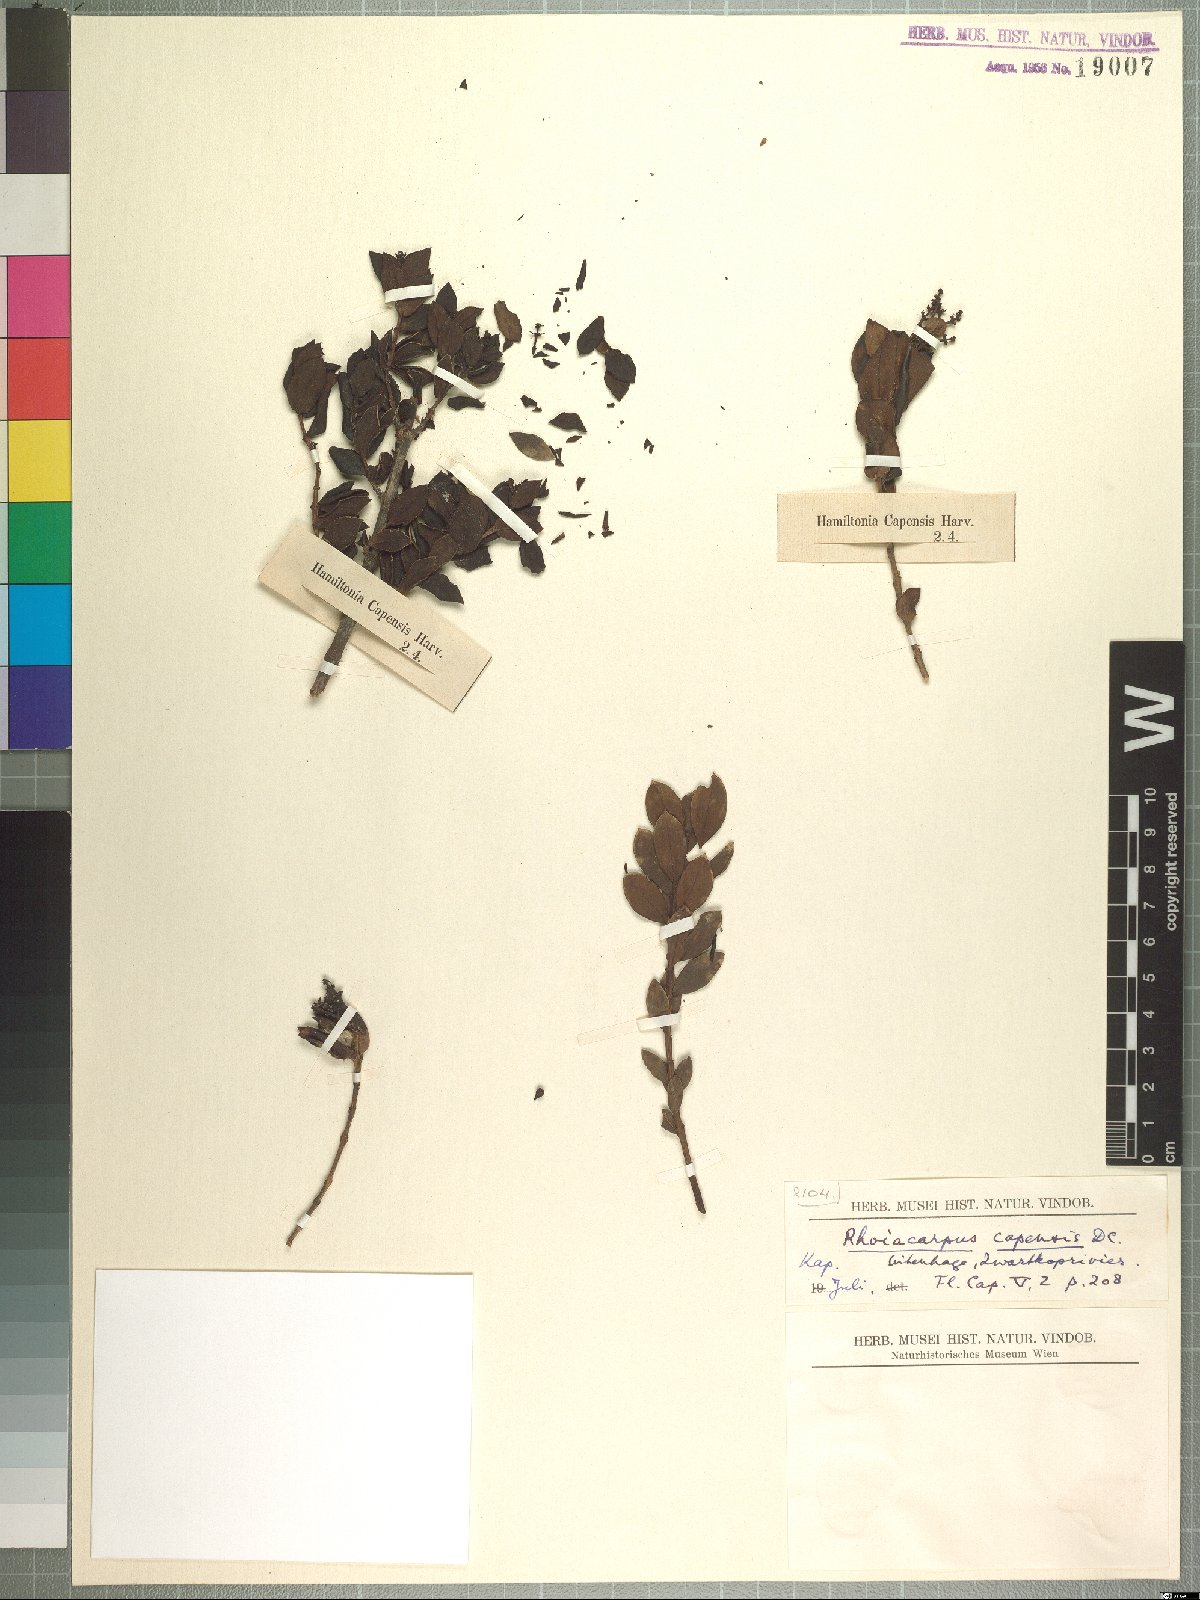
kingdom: Plantae
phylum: Tracheophyta
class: Magnoliopsida
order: Santalales
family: Santalaceae
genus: Rhoiacarpos
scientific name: Rhoiacarpos capensis
